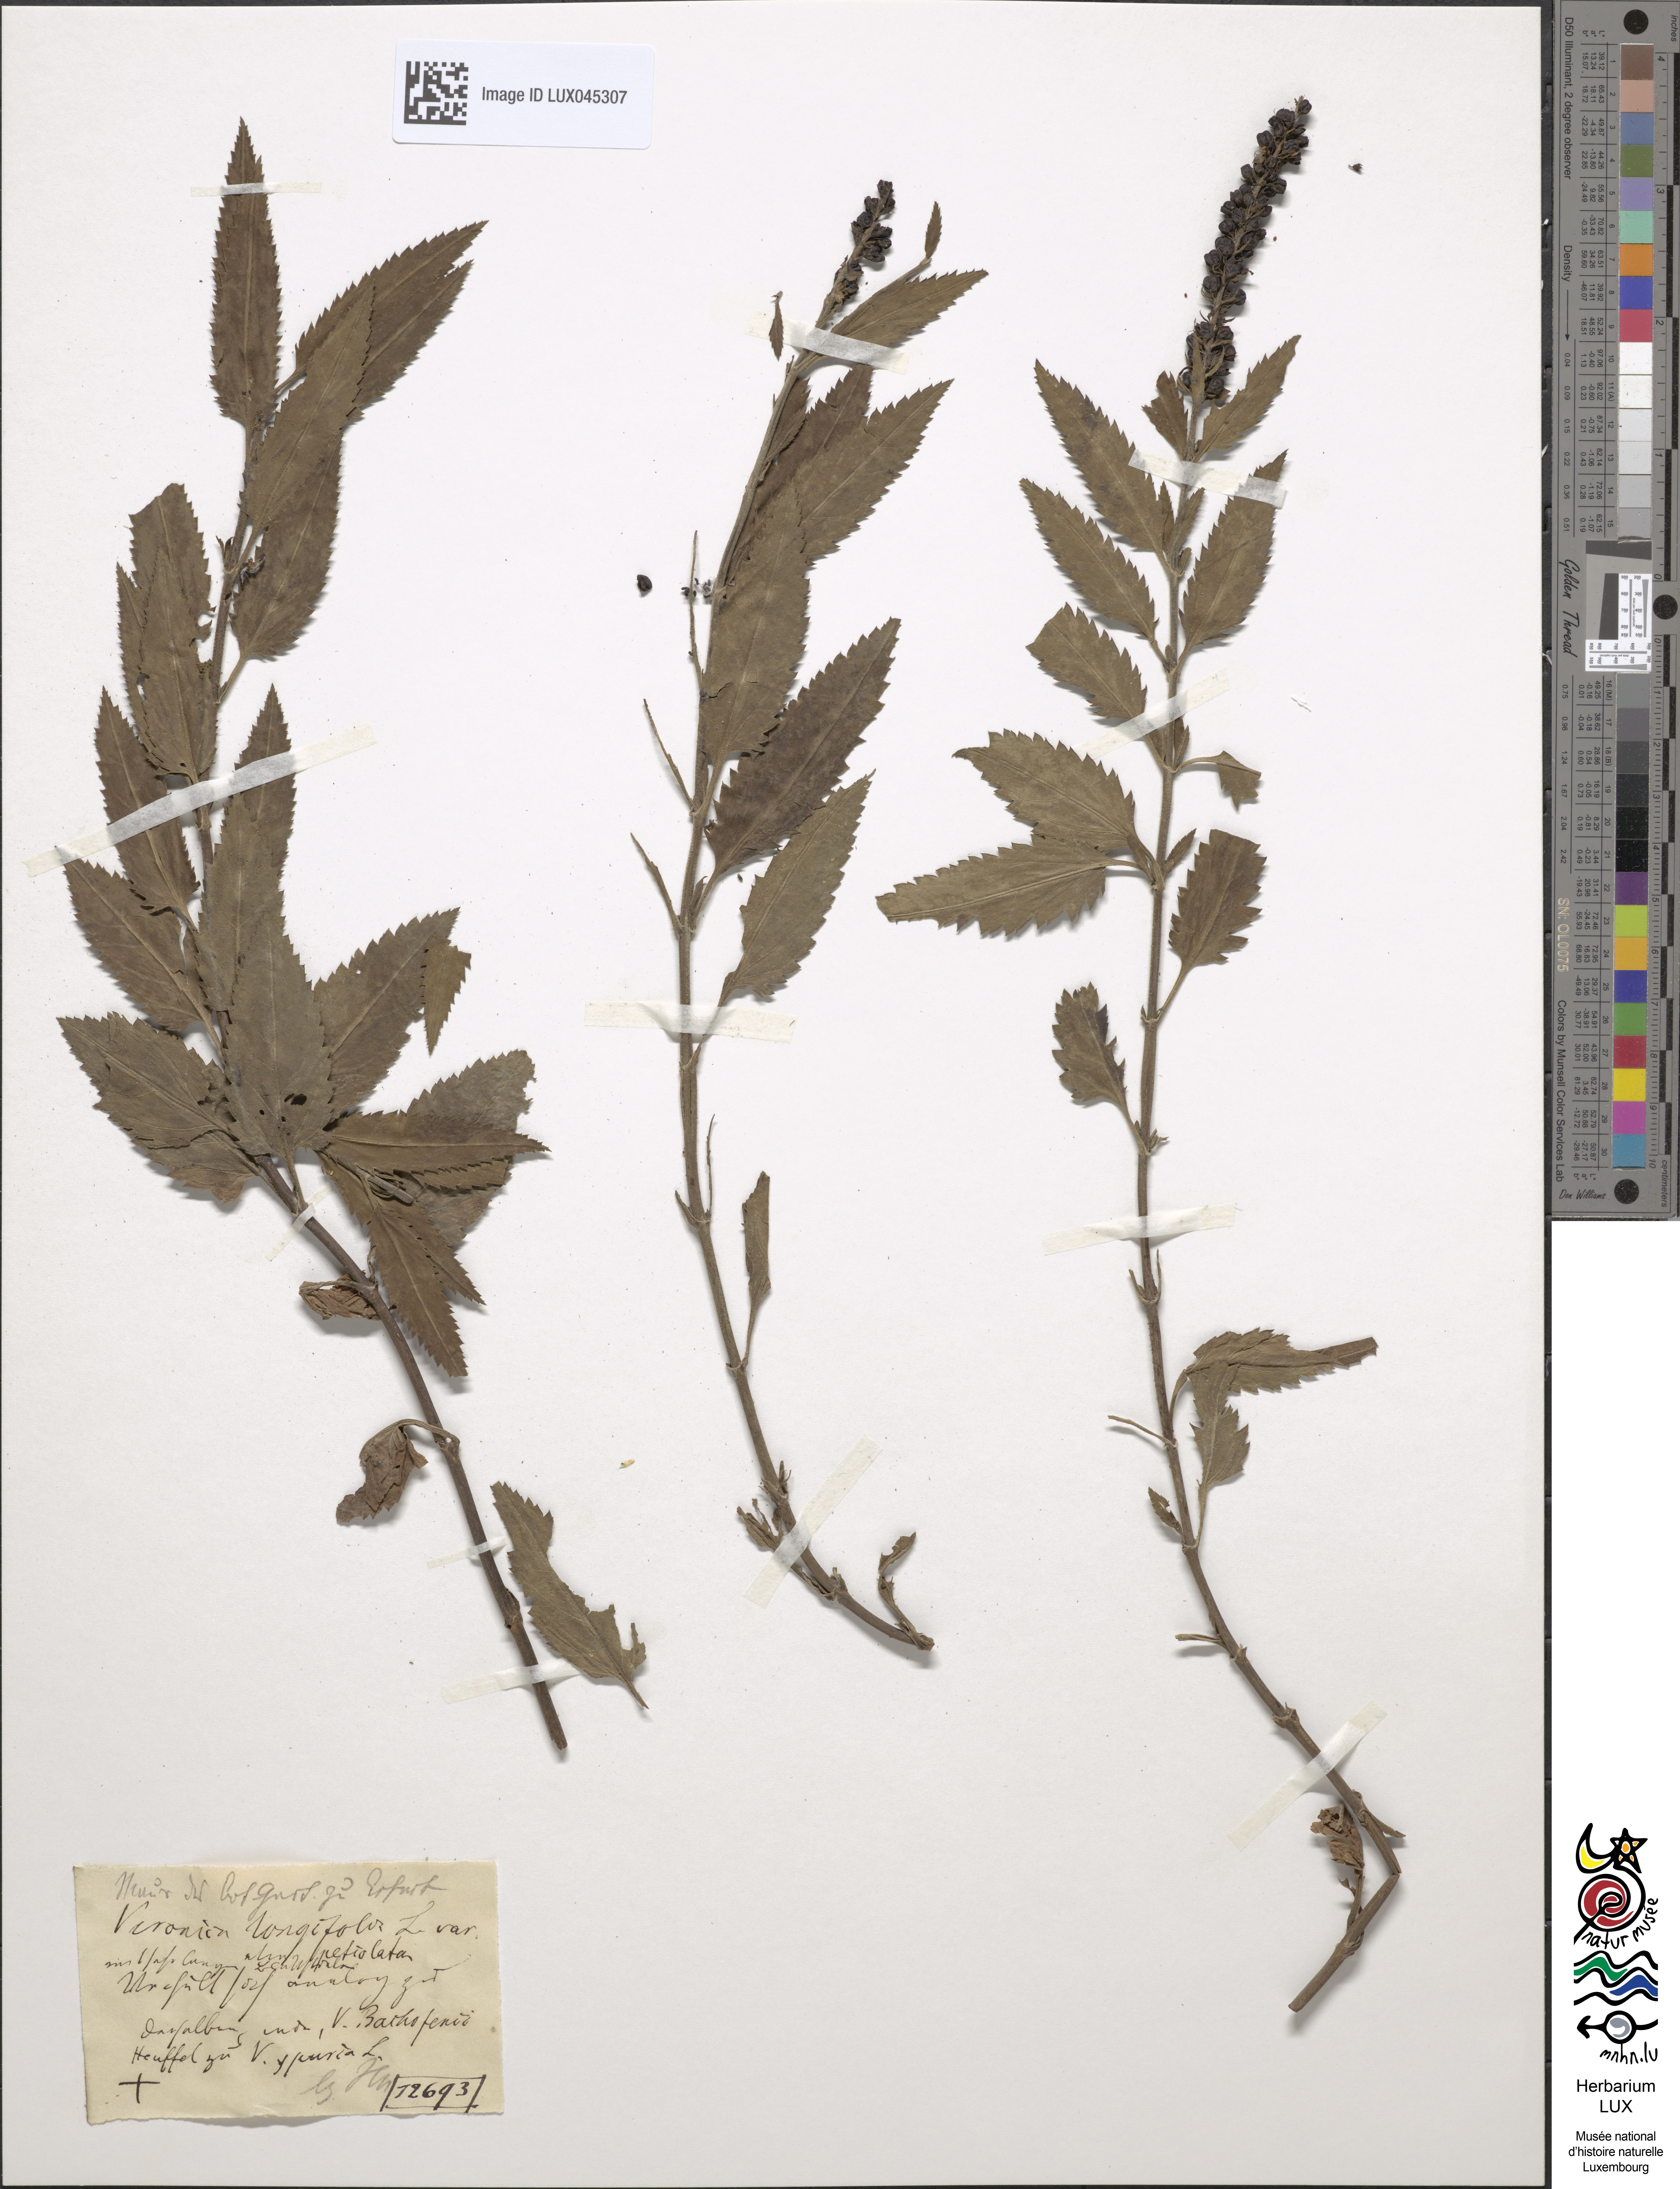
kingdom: Plantae
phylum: Tracheophyta
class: Magnoliopsida
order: Lamiales
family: Plantaginaceae
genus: Veronica
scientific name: Veronica longifolia
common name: Garden speedwell
